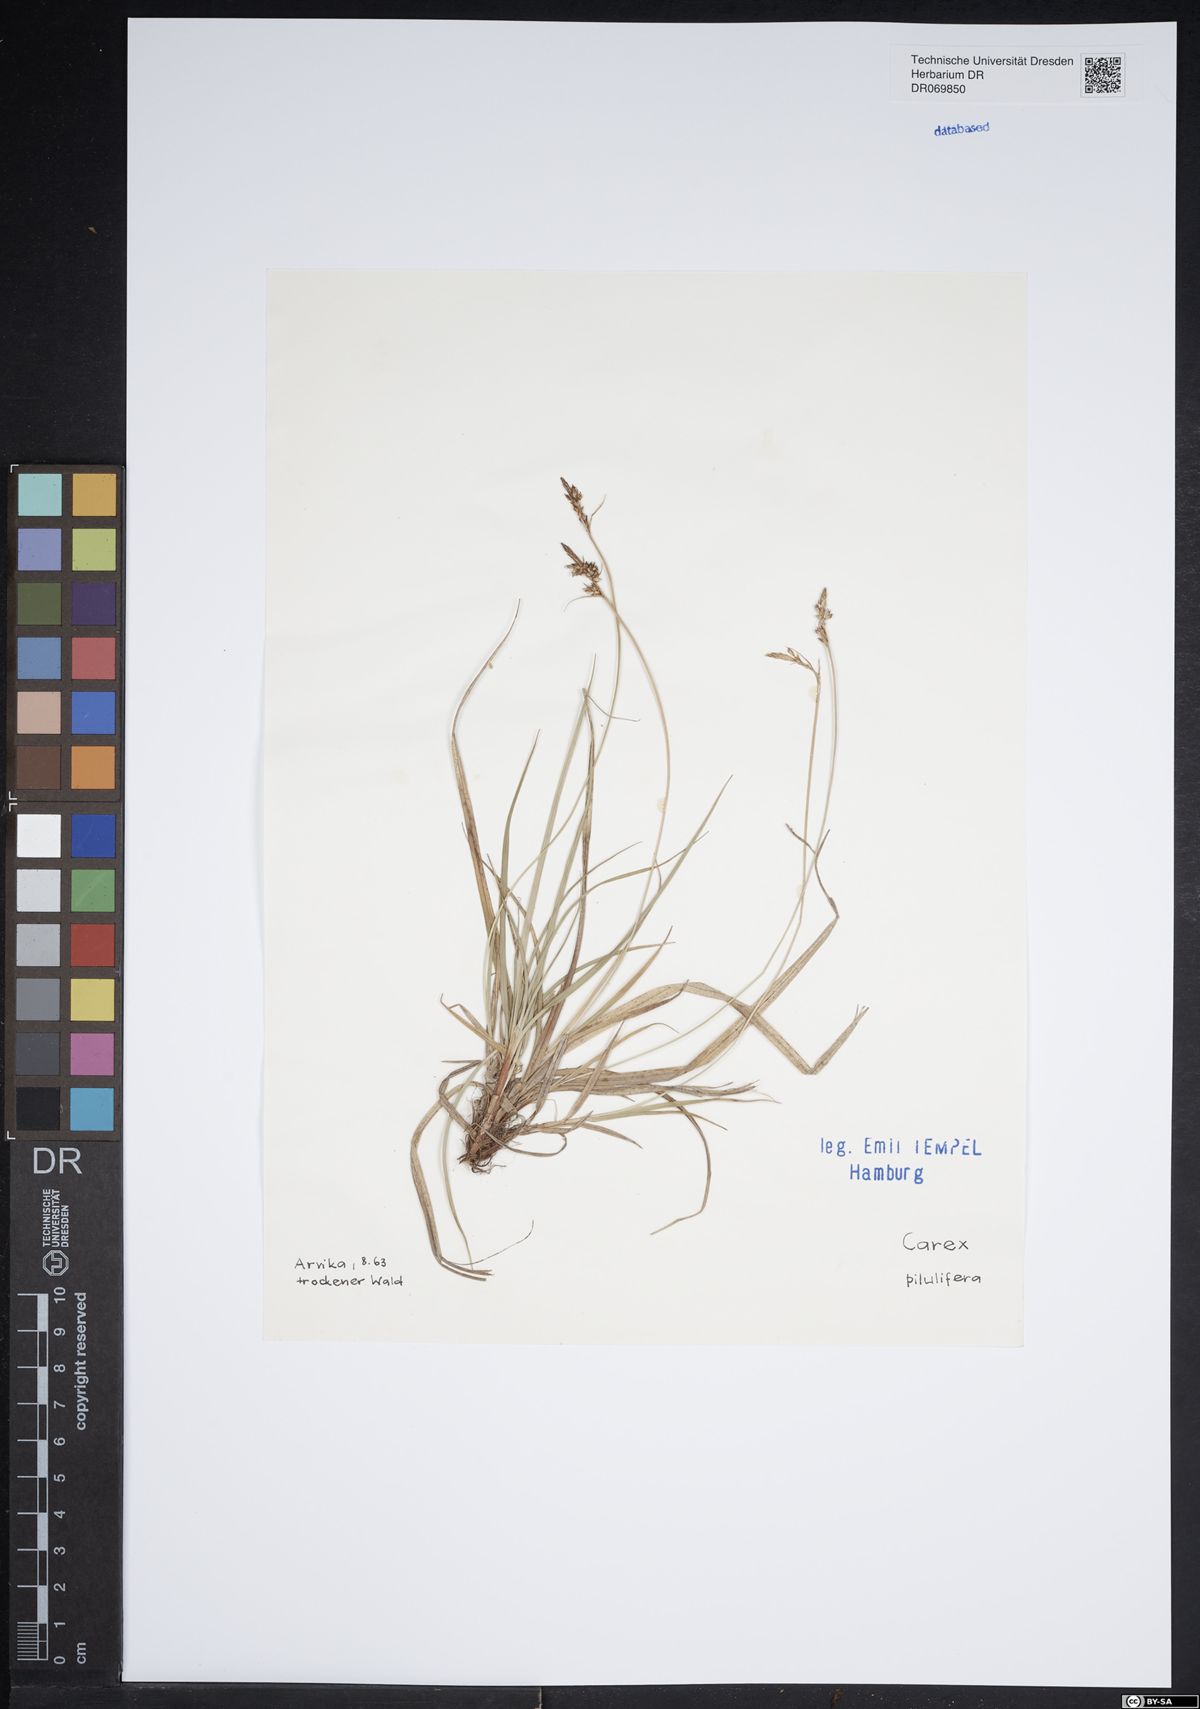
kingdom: Plantae
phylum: Tracheophyta
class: Liliopsida
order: Poales
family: Cyperaceae
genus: Carex
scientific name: Carex pilulifera
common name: Pill sedge
